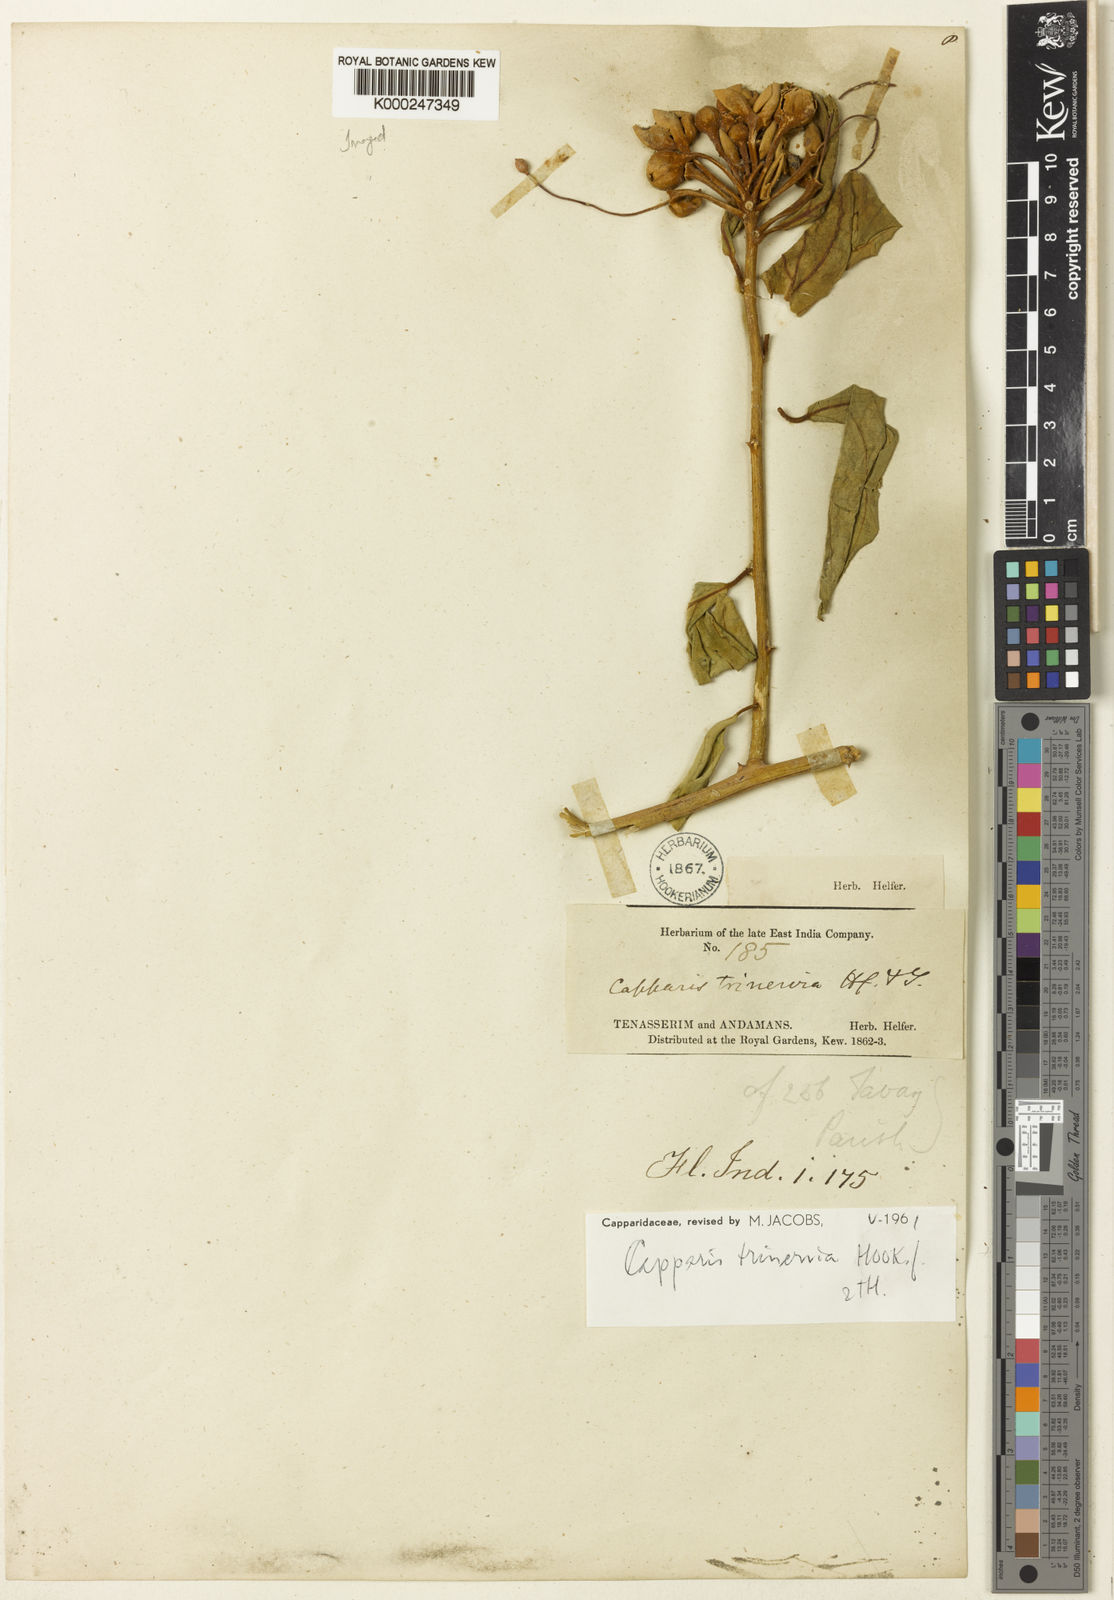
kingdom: Plantae
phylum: Tracheophyta
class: Magnoliopsida
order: Brassicales
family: Capparaceae
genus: Capparis
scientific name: Capparis trinervia
